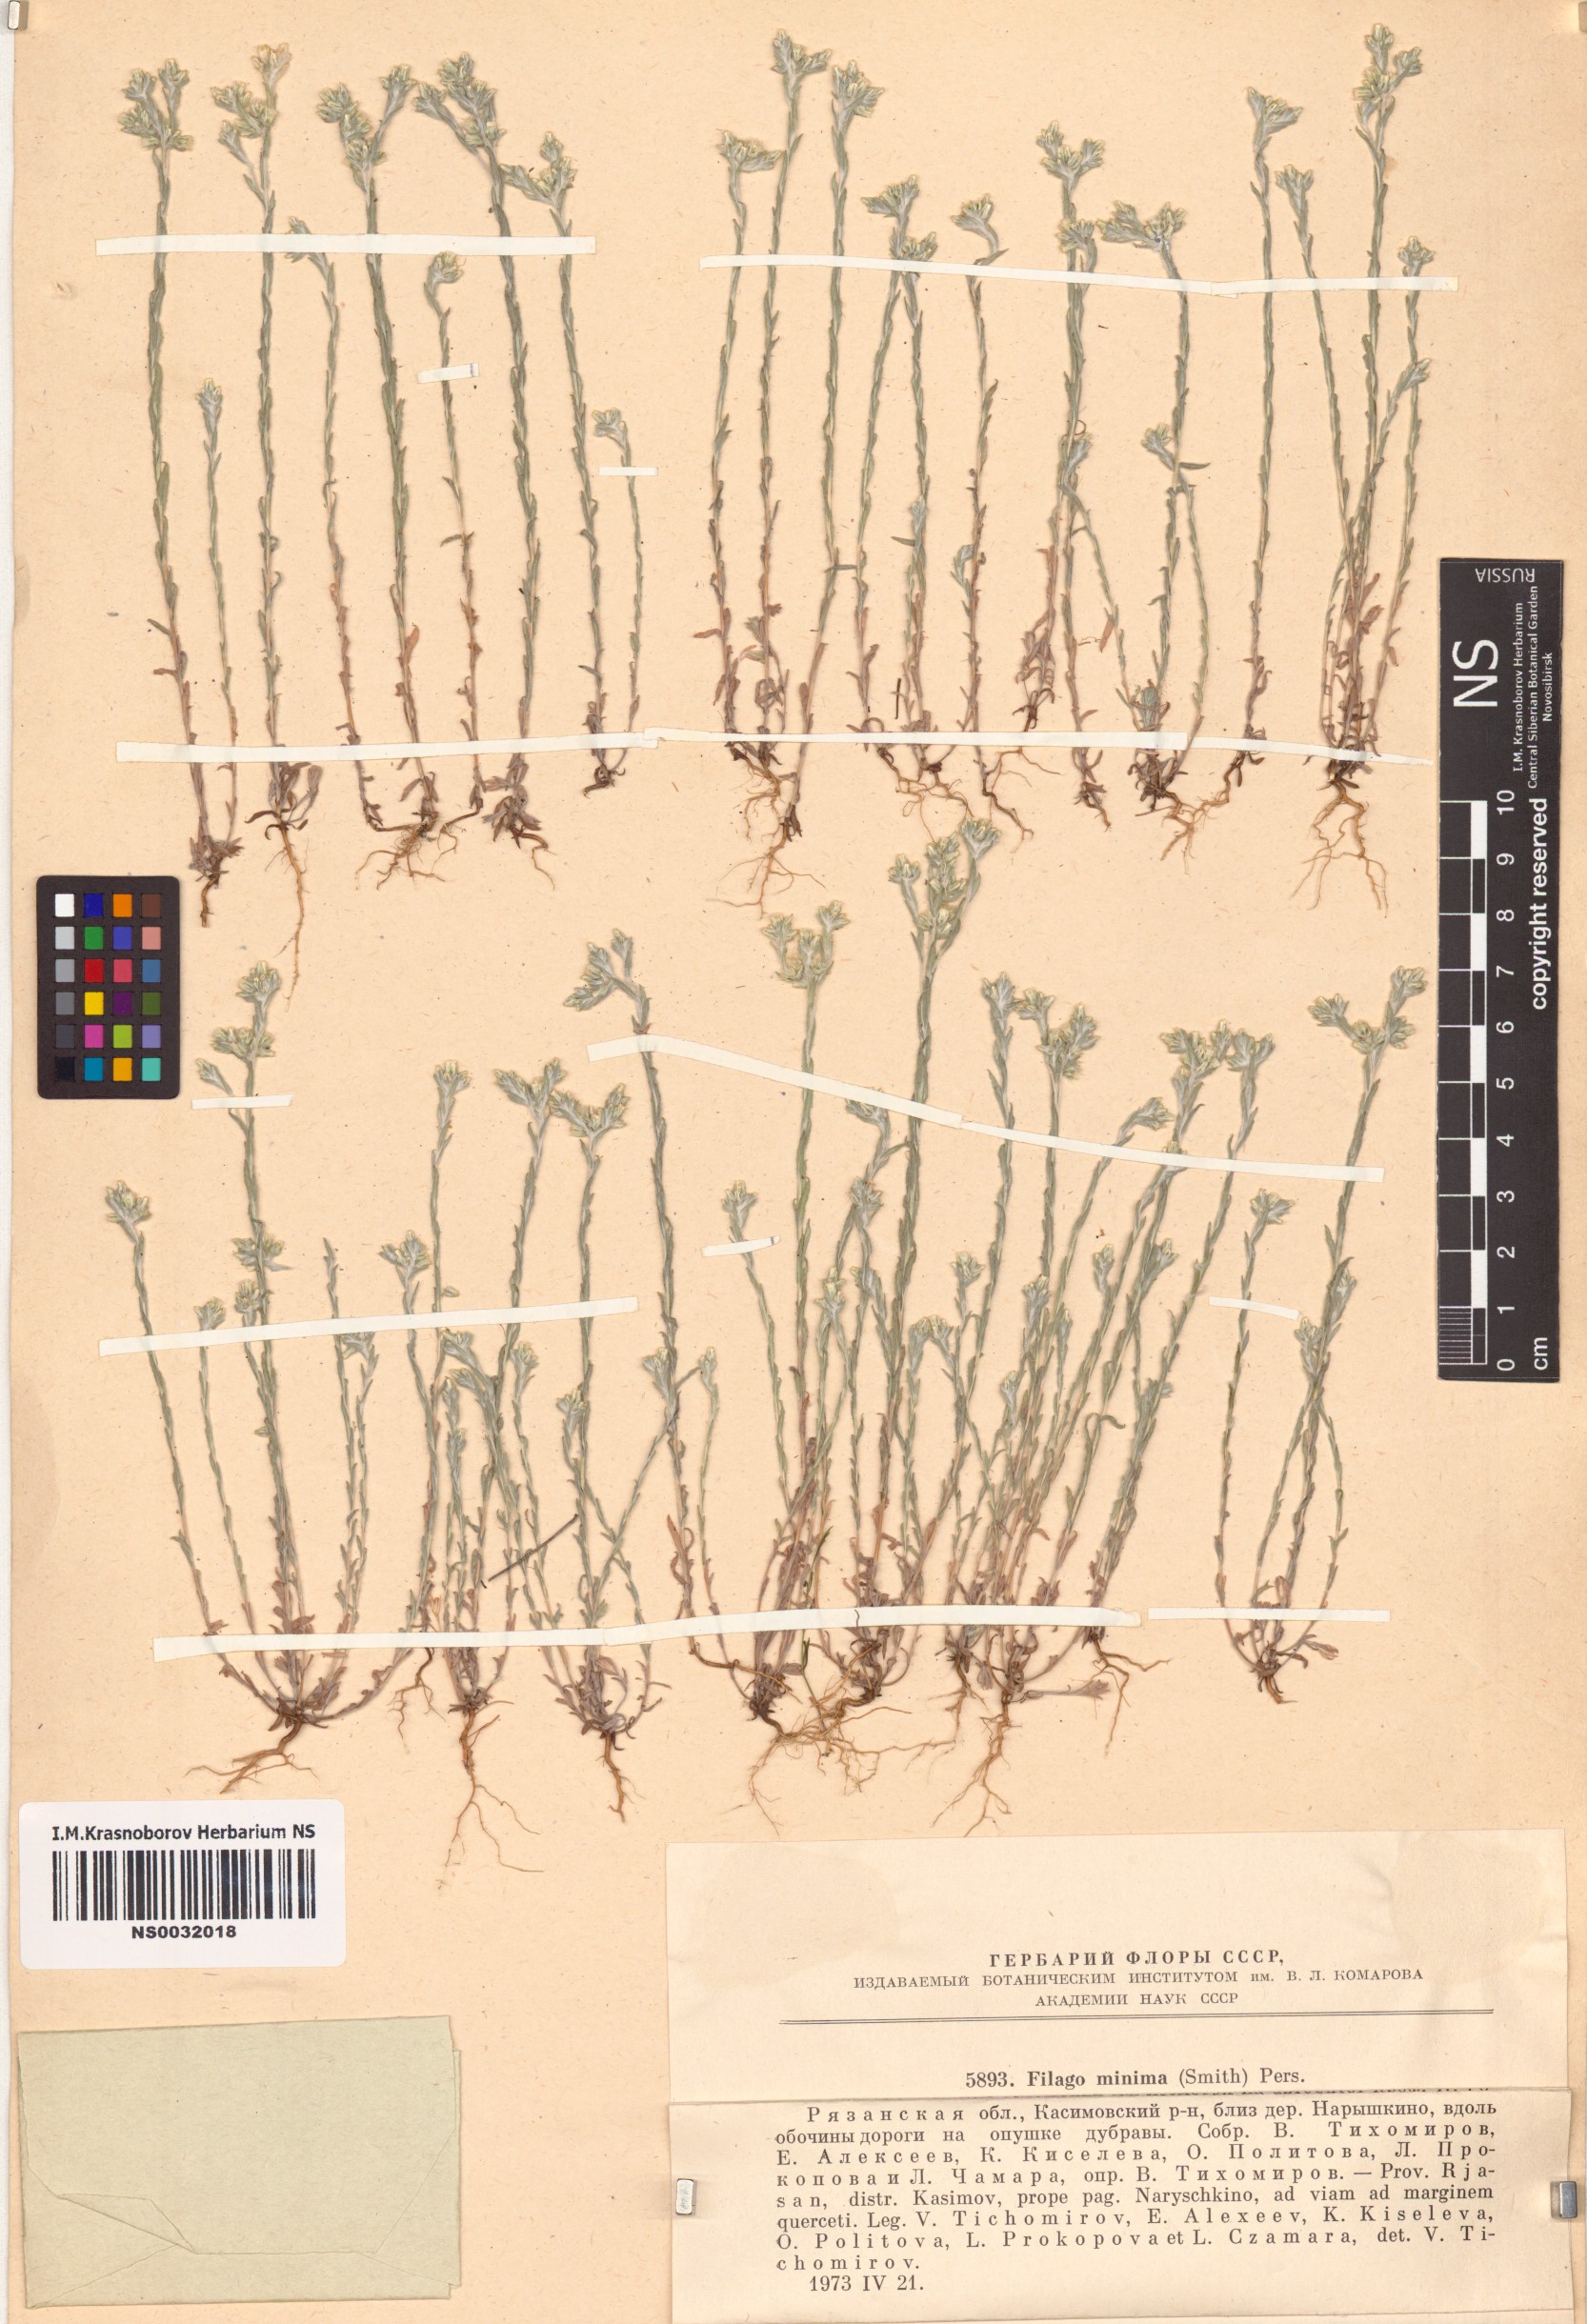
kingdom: Plantae
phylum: Tracheophyta
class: Magnoliopsida
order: Asterales
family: Asteraceae
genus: Logfia
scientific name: Logfia minima
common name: Little cottonrose
